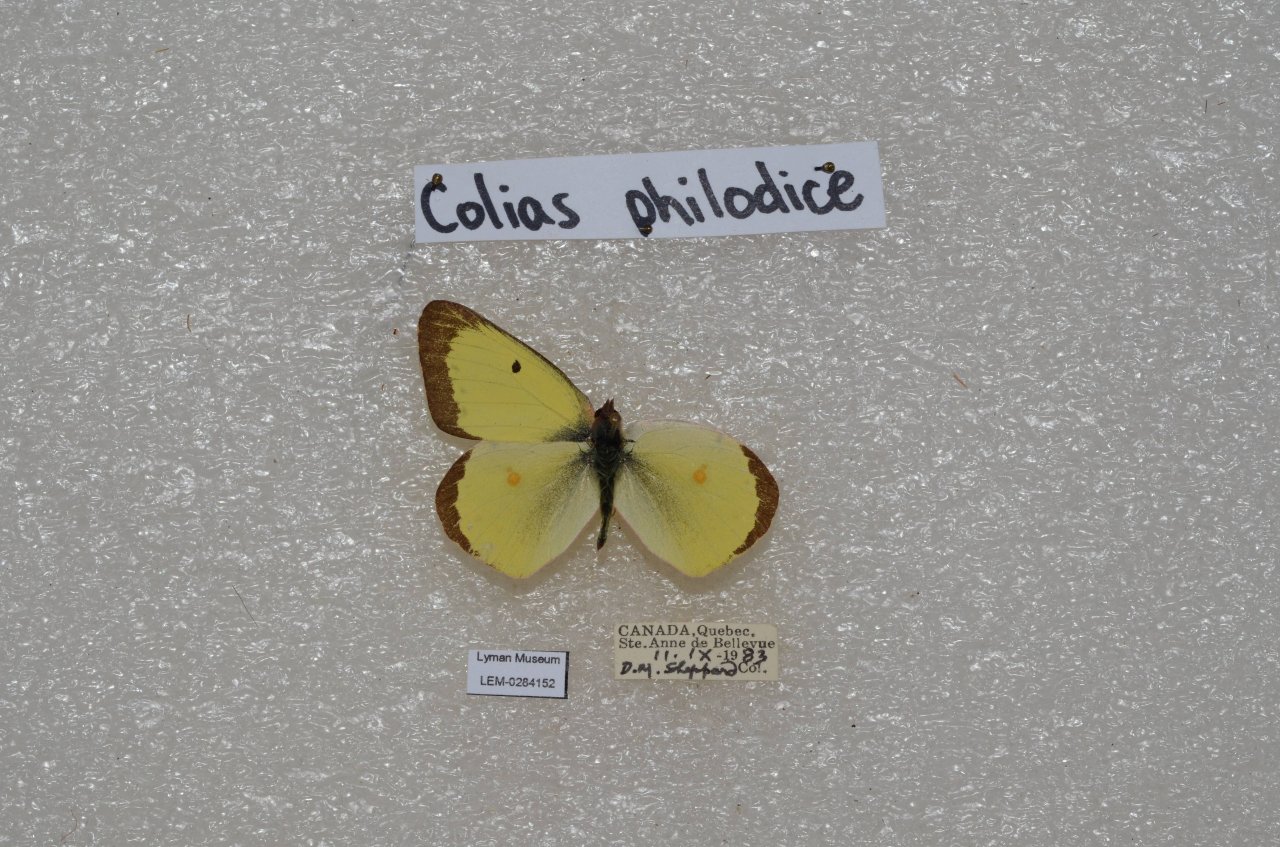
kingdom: Animalia
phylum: Arthropoda
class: Insecta
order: Lepidoptera
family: Pieridae
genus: Colias
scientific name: Colias philodice
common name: Clouded Sulphur
